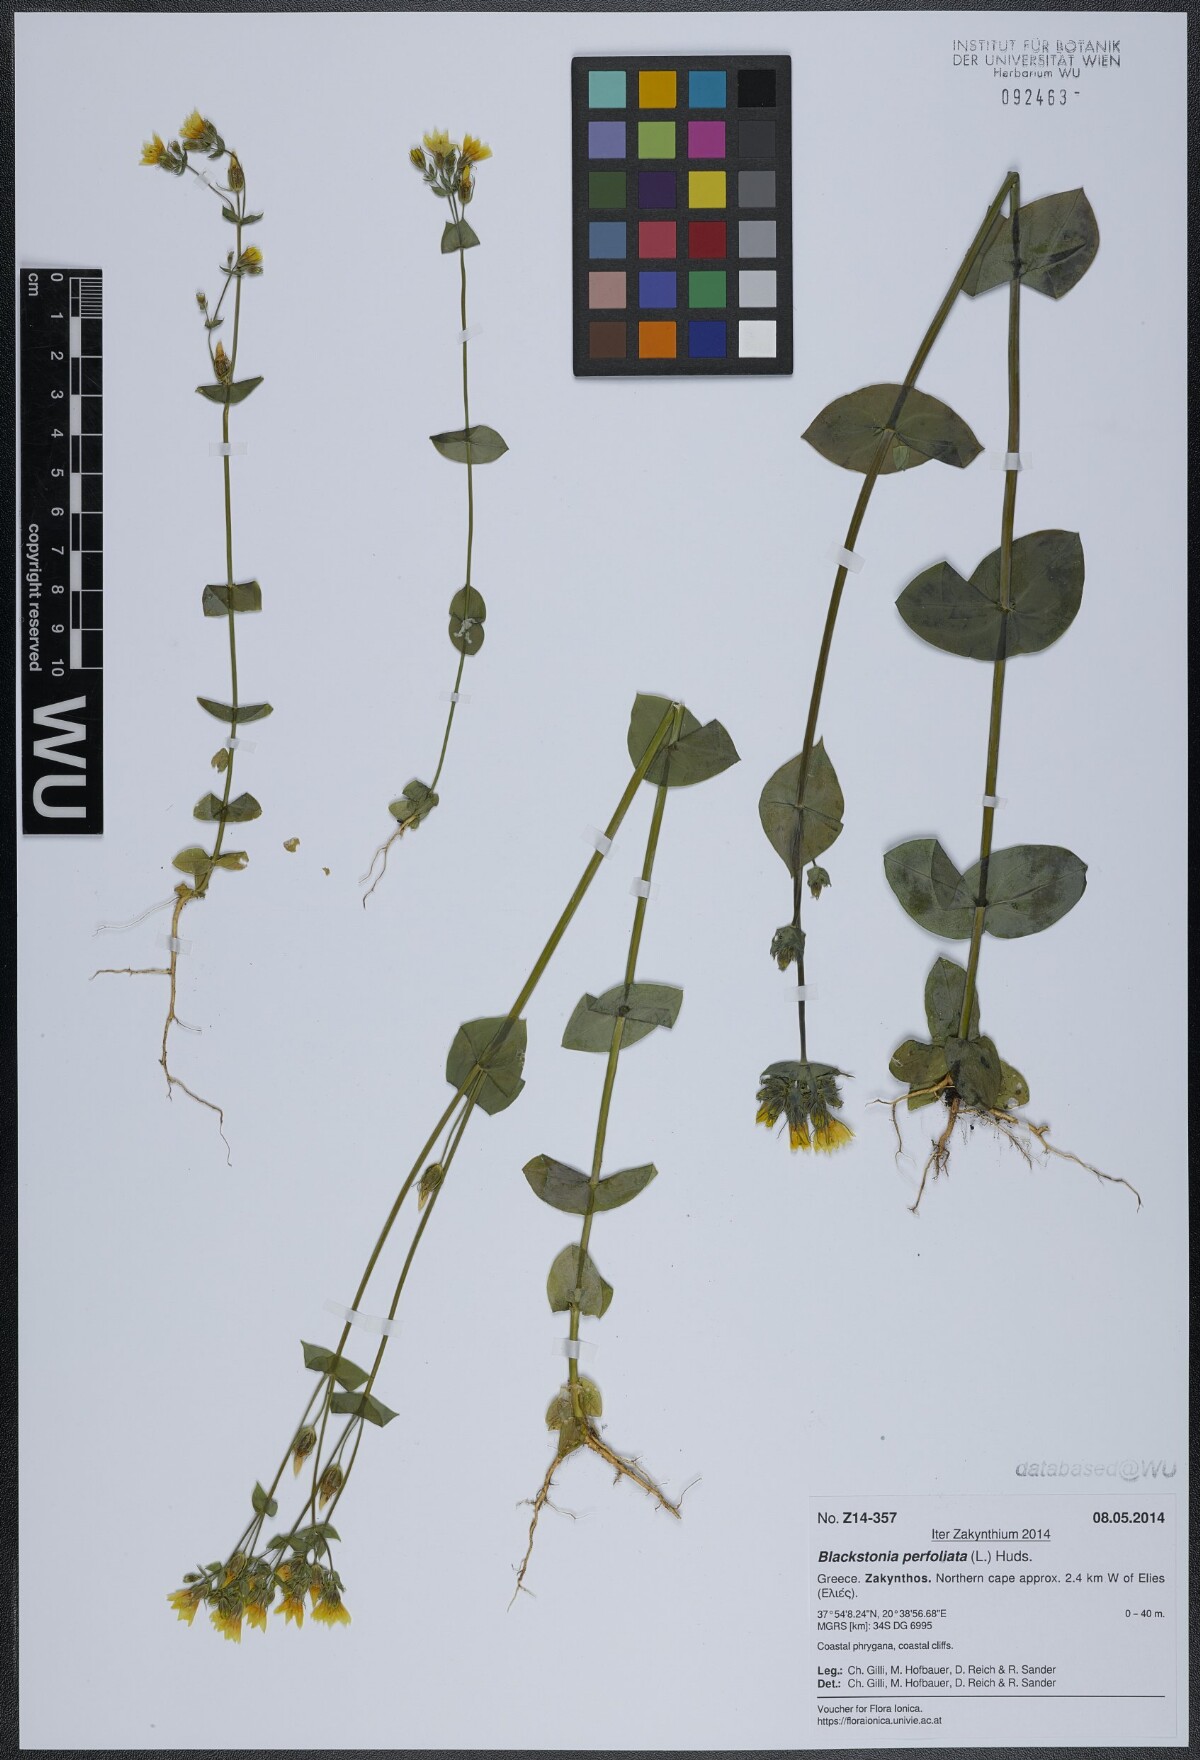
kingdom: Plantae
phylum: Tracheophyta
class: Magnoliopsida
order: Gentianales
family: Gentianaceae
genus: Blackstonia
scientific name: Blackstonia perfoliata
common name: Yellow-wort
